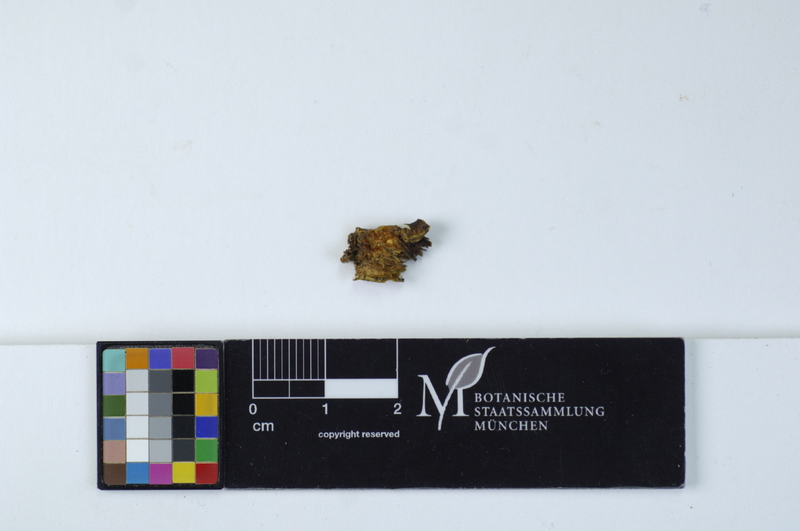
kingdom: Plantae
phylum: Tracheophyta
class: Magnoliopsida
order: Rosales
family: Rosaceae
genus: Prunus
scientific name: Prunus Cerasus myrtifolia
